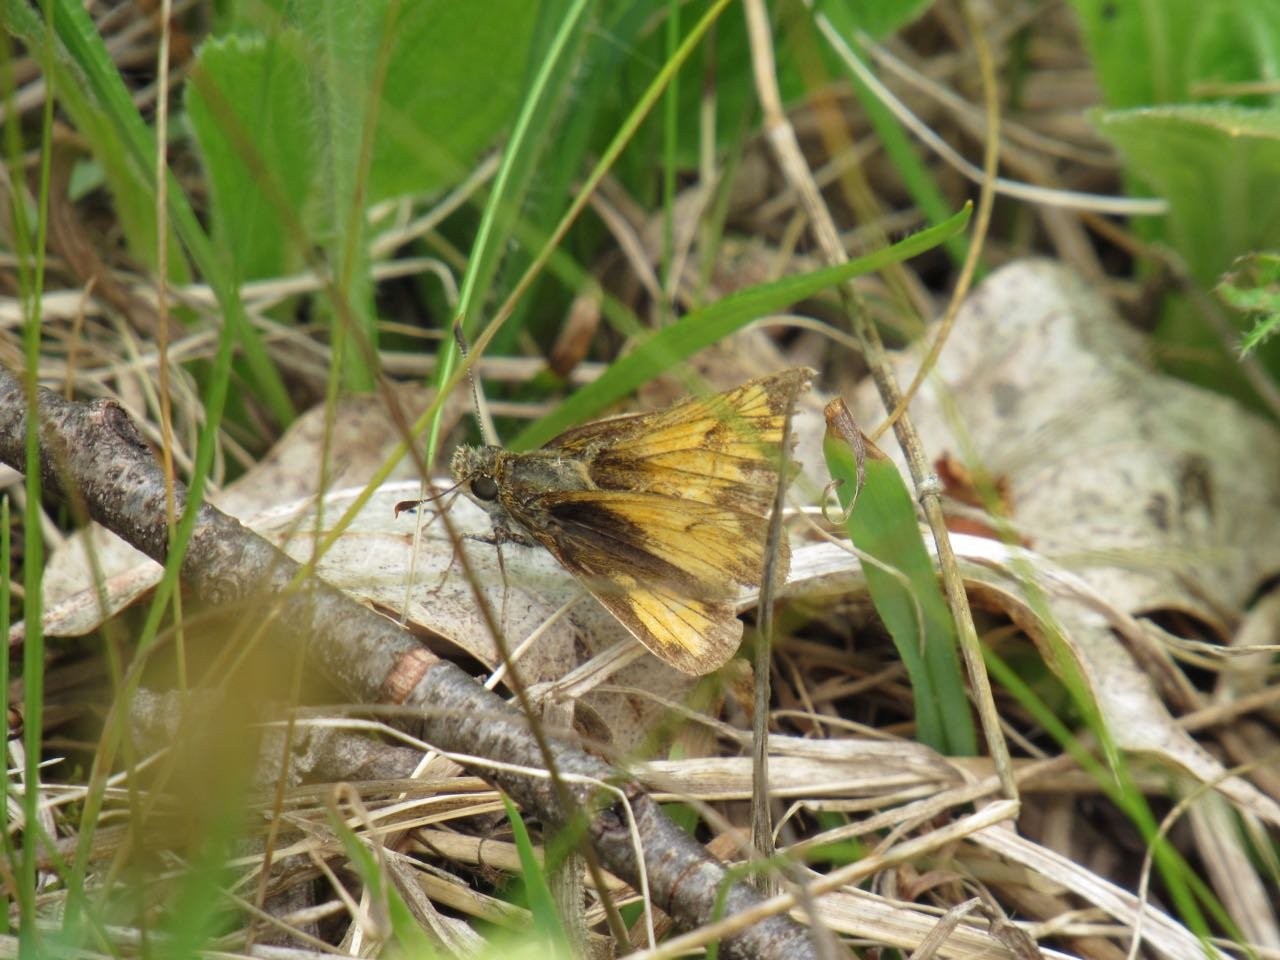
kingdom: Animalia
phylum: Arthropoda
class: Insecta
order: Lepidoptera
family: Hesperiidae
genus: Lon
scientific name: Lon hobomok
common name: Hobomok Skipper
